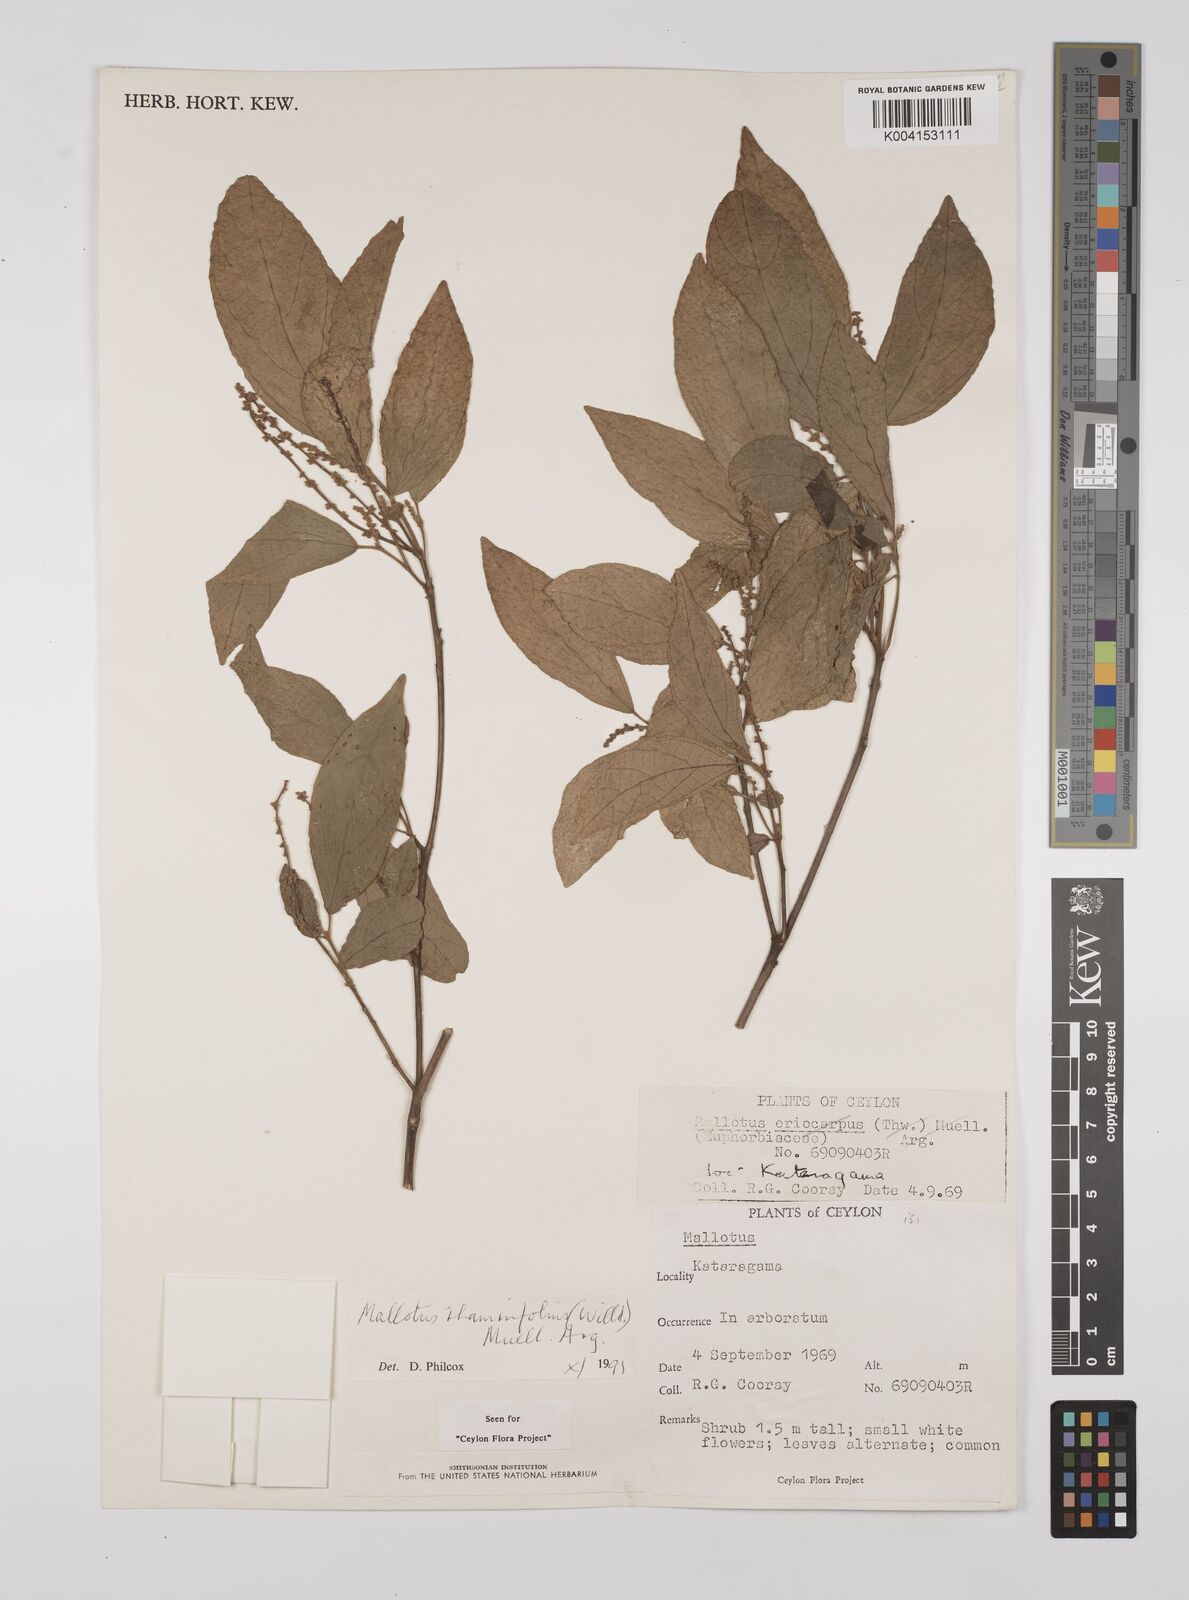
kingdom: Plantae
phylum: Tracheophyta
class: Magnoliopsida
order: Malpighiales
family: Euphorbiaceae
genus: Mallotus
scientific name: Mallotus rhamnifolius
